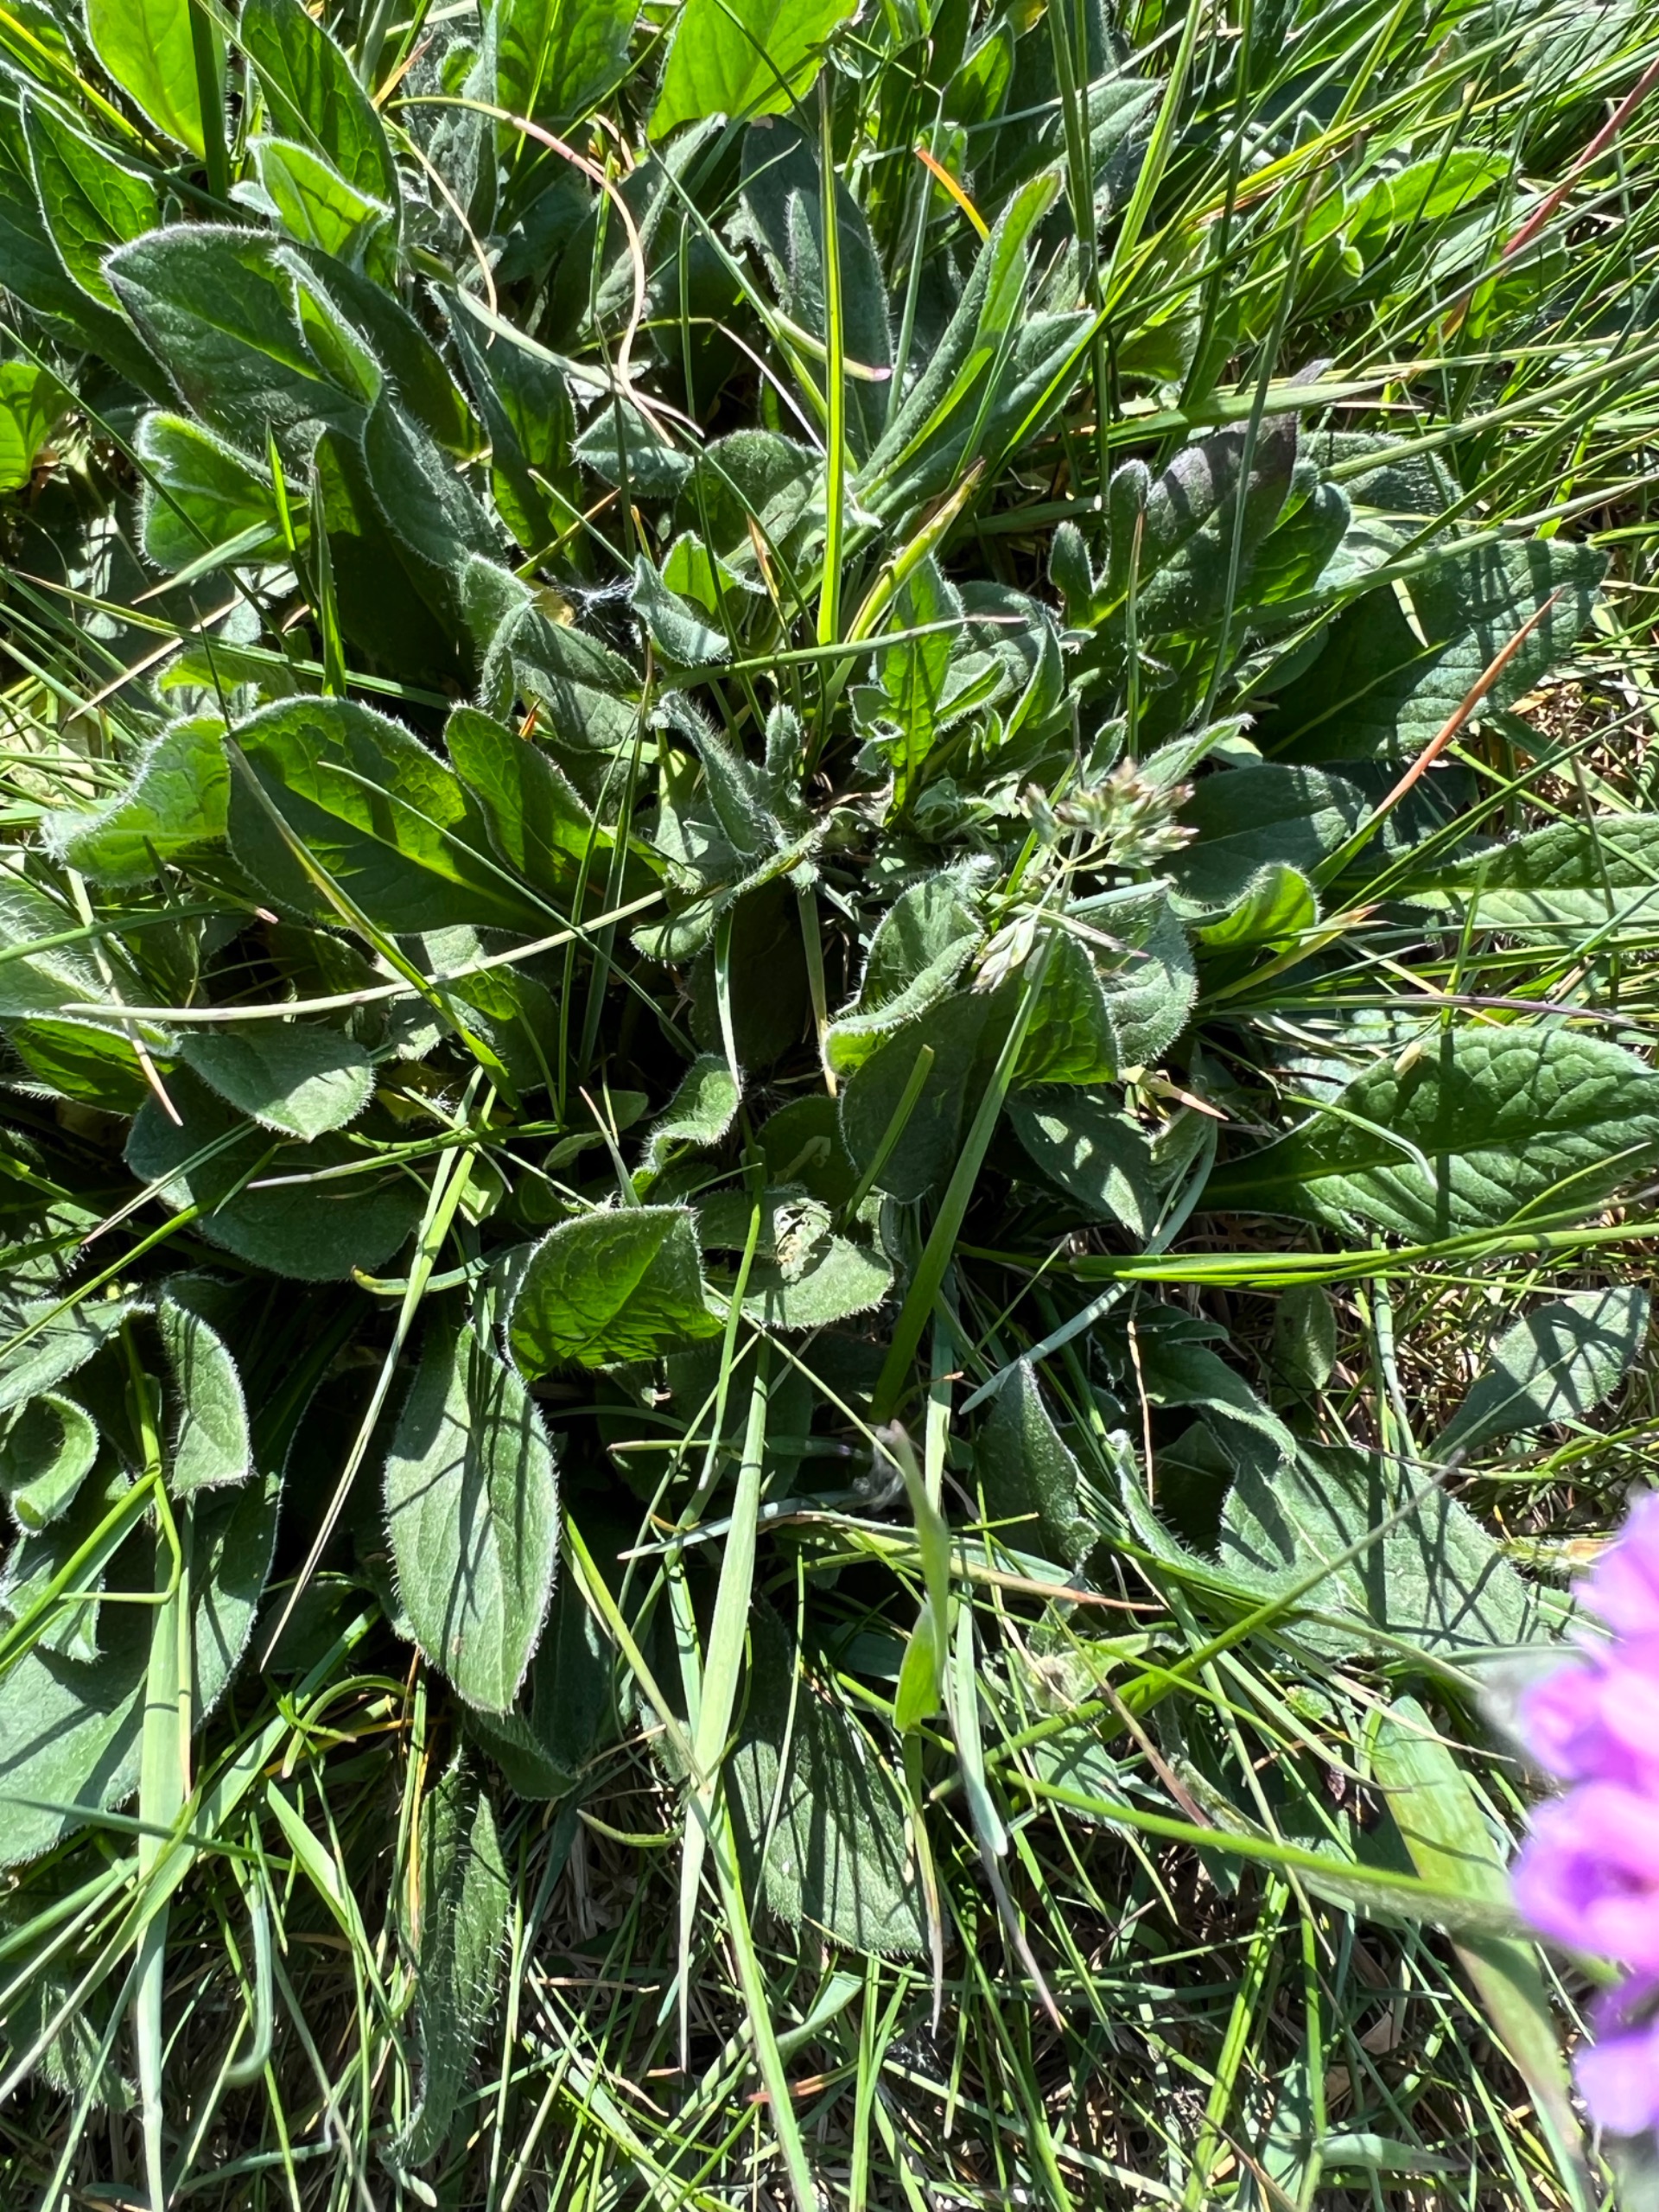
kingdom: Plantae
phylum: Tracheophyta
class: Magnoliopsida
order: Dipsacales
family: Caprifoliaceae
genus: Knautia
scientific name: Knautia arvensis
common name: Blåhat
